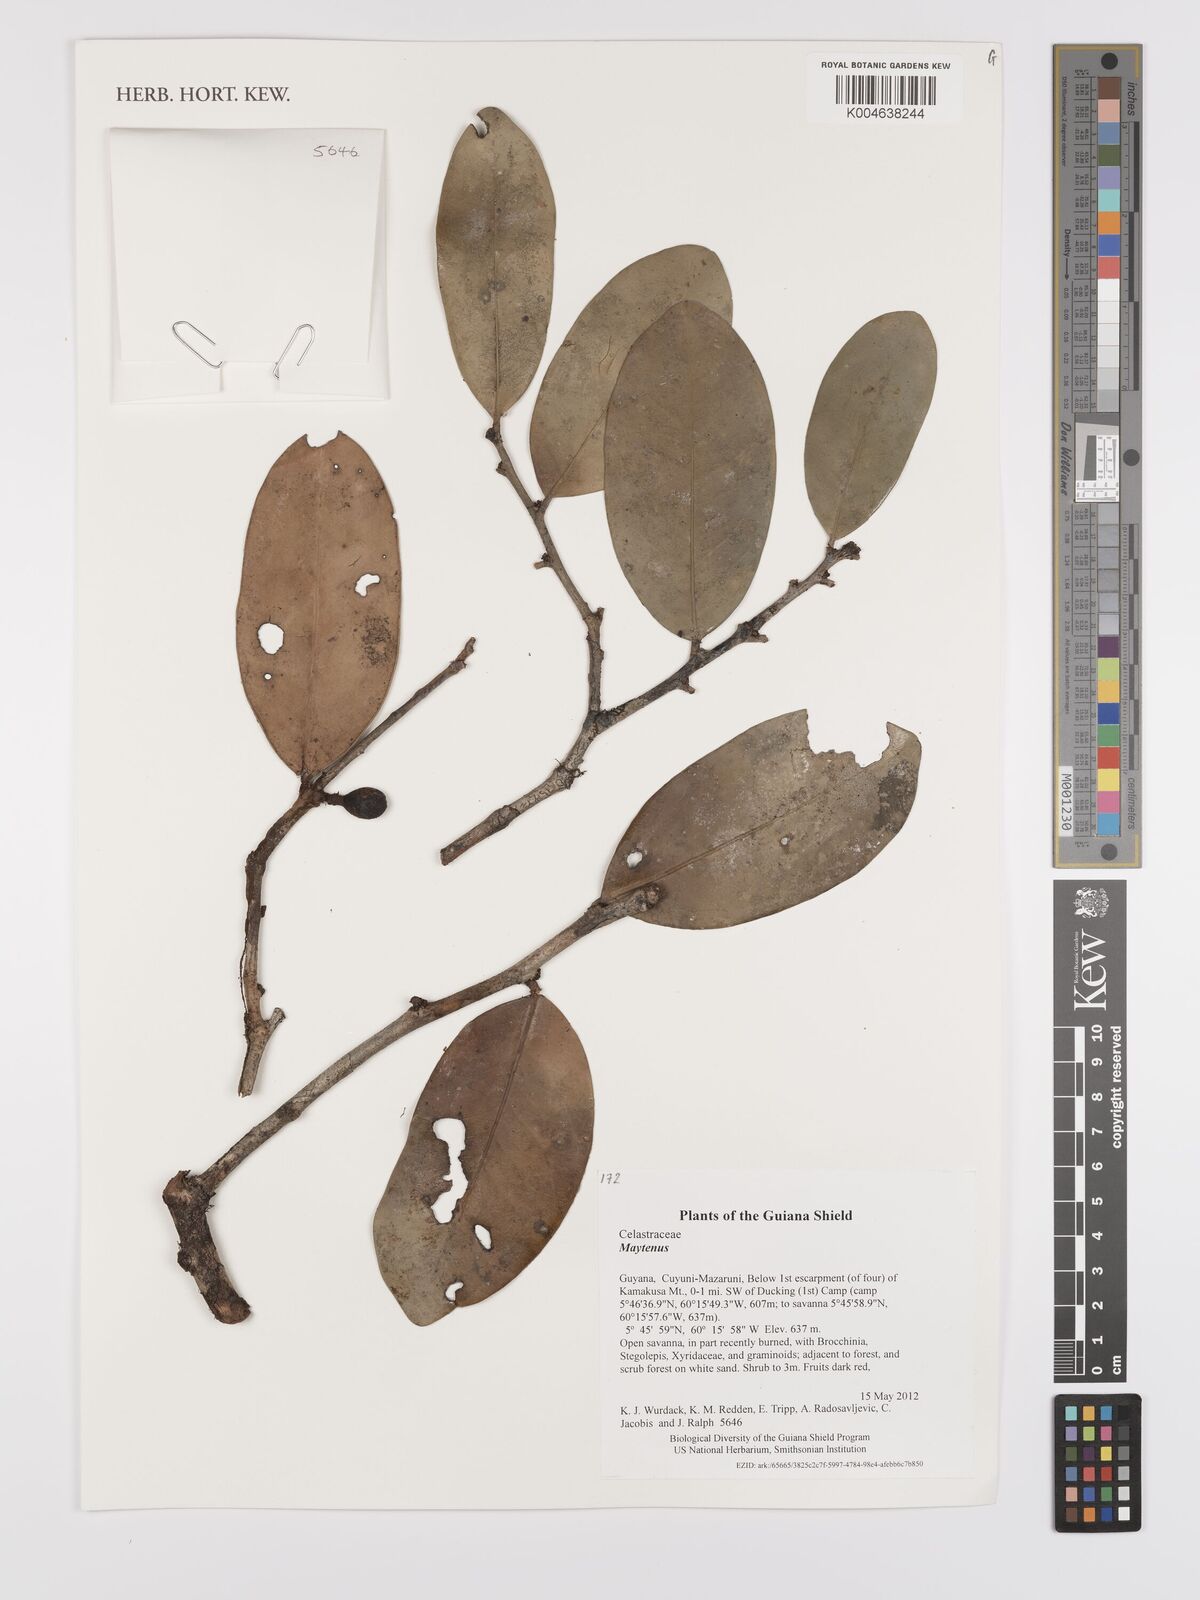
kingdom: Plantae
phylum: Tracheophyta
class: Magnoliopsida
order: Celastrales
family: Celastraceae
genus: Maytenus
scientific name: Maytenus
